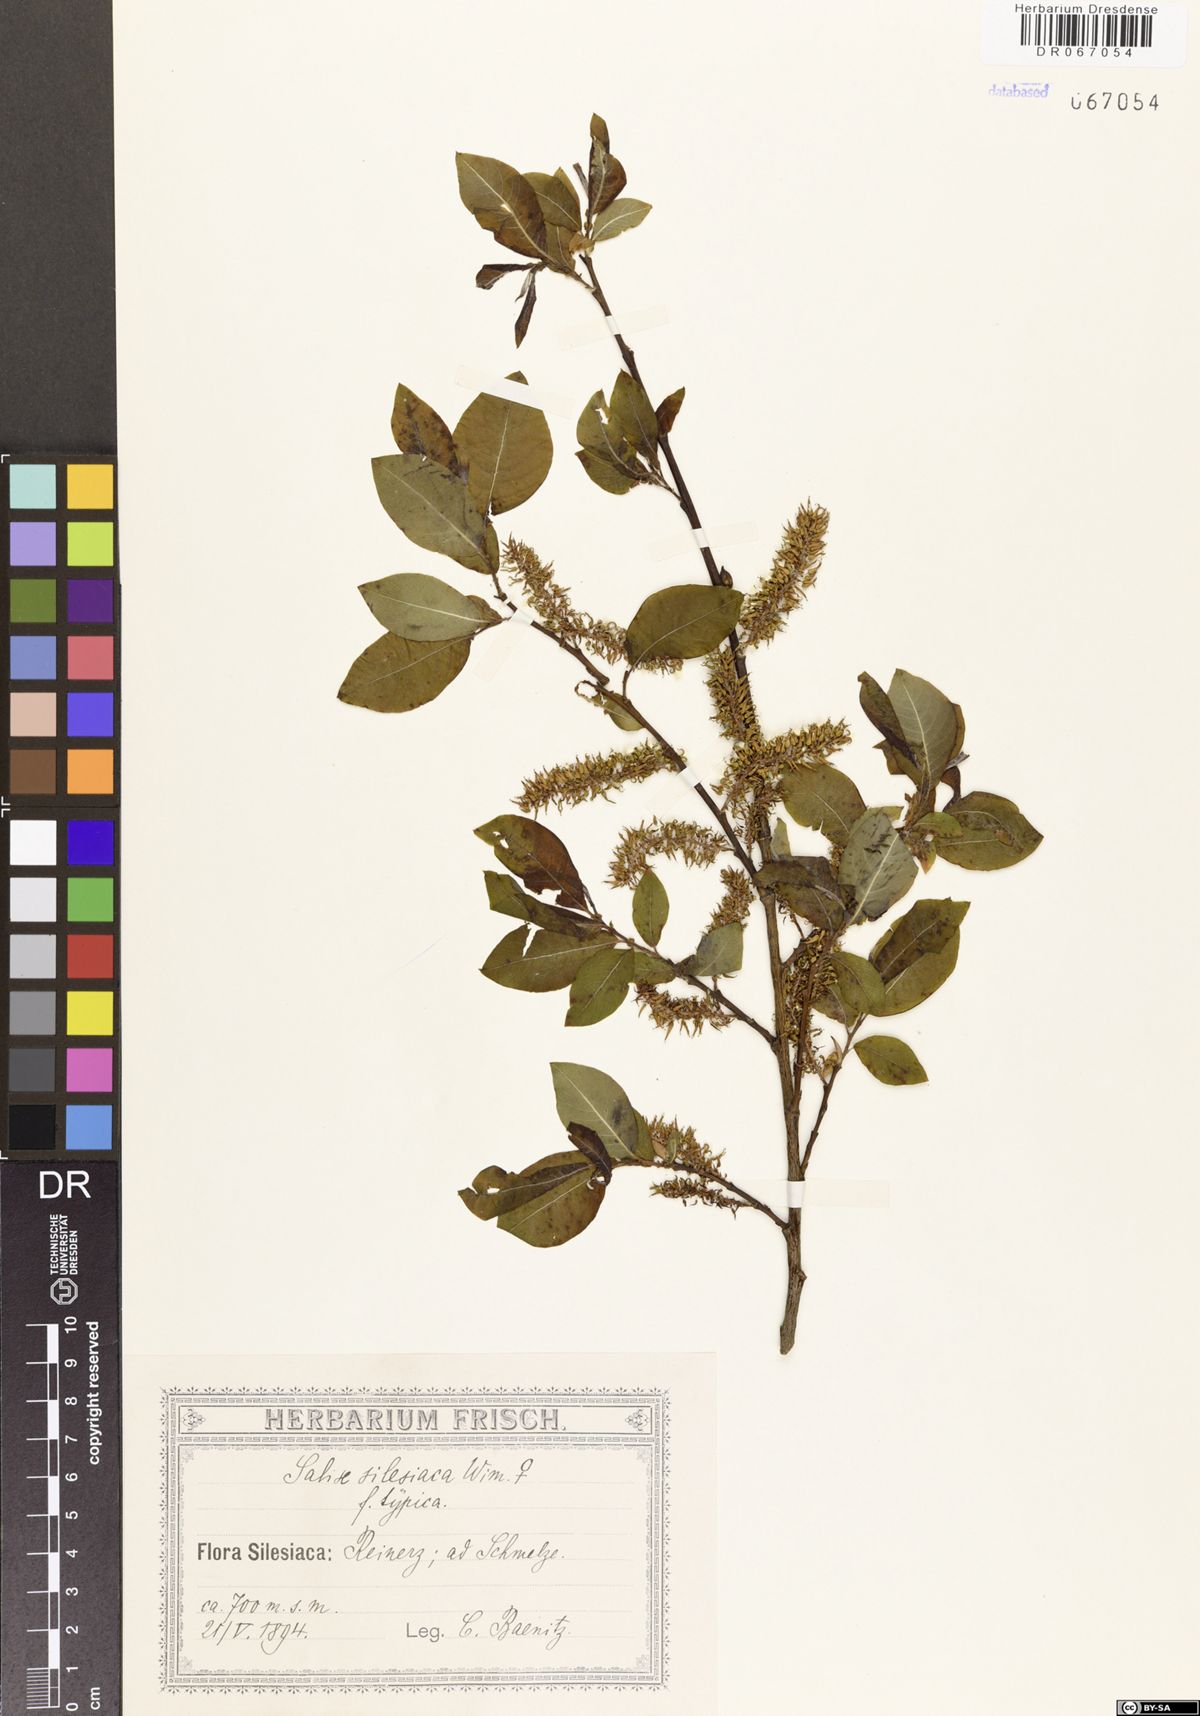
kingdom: Plantae
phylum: Tracheophyta
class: Magnoliopsida
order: Malpighiales
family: Salicaceae
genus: Salix
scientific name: Salix silesiaca
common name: Silesian willow
